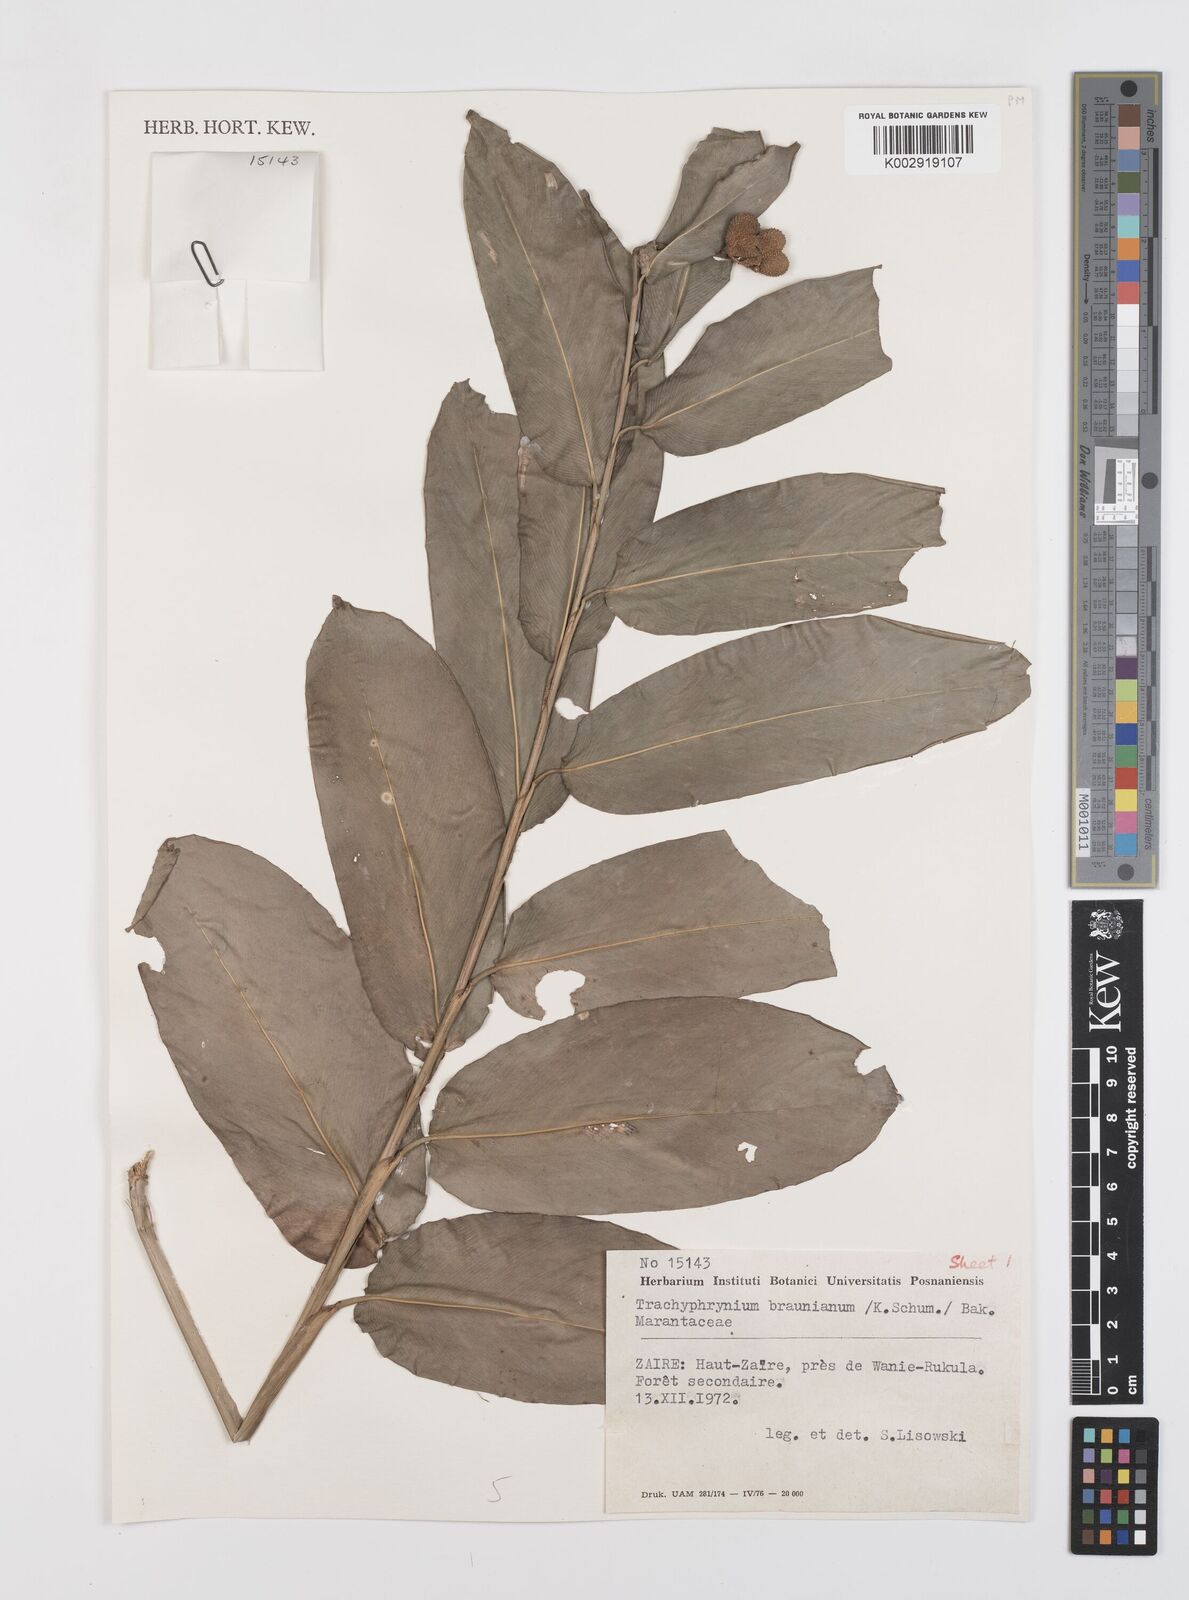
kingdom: Plantae
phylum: Tracheophyta
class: Liliopsida
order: Zingiberales
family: Marantaceae
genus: Trachyphrynium
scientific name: Trachyphrynium braunianum
